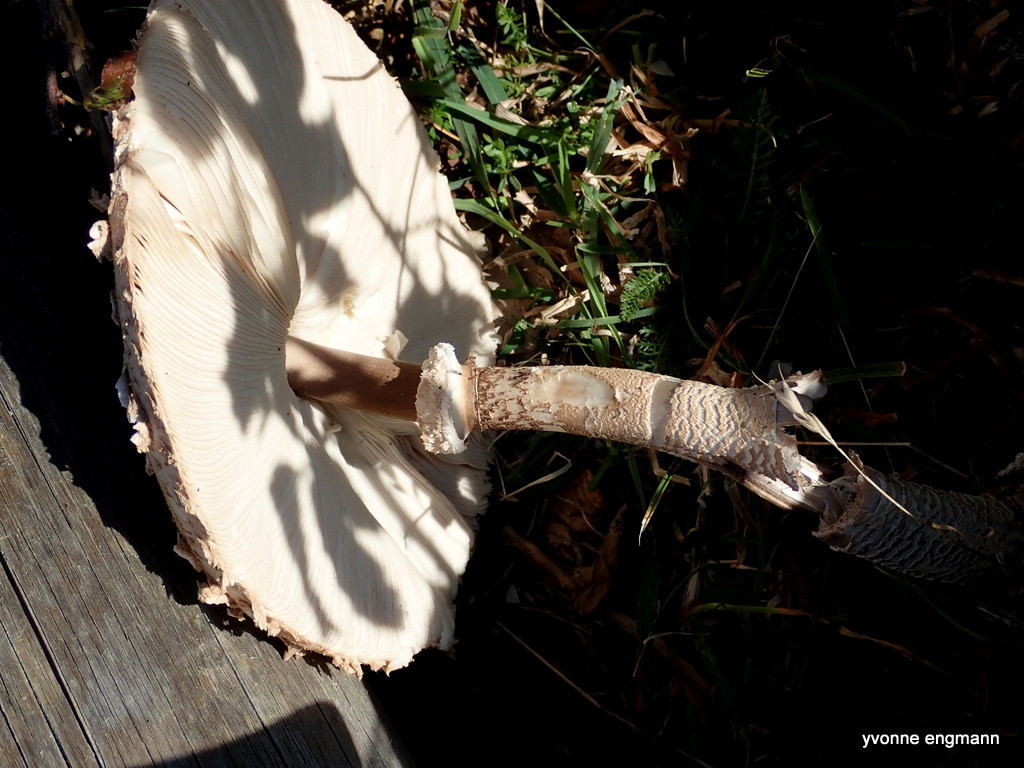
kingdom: Fungi
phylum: Basidiomycota
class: Agaricomycetes
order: Agaricales
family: Agaricaceae
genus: Leucoagaricus
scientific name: Leucoagaricus nympharum
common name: gran-silkehat
